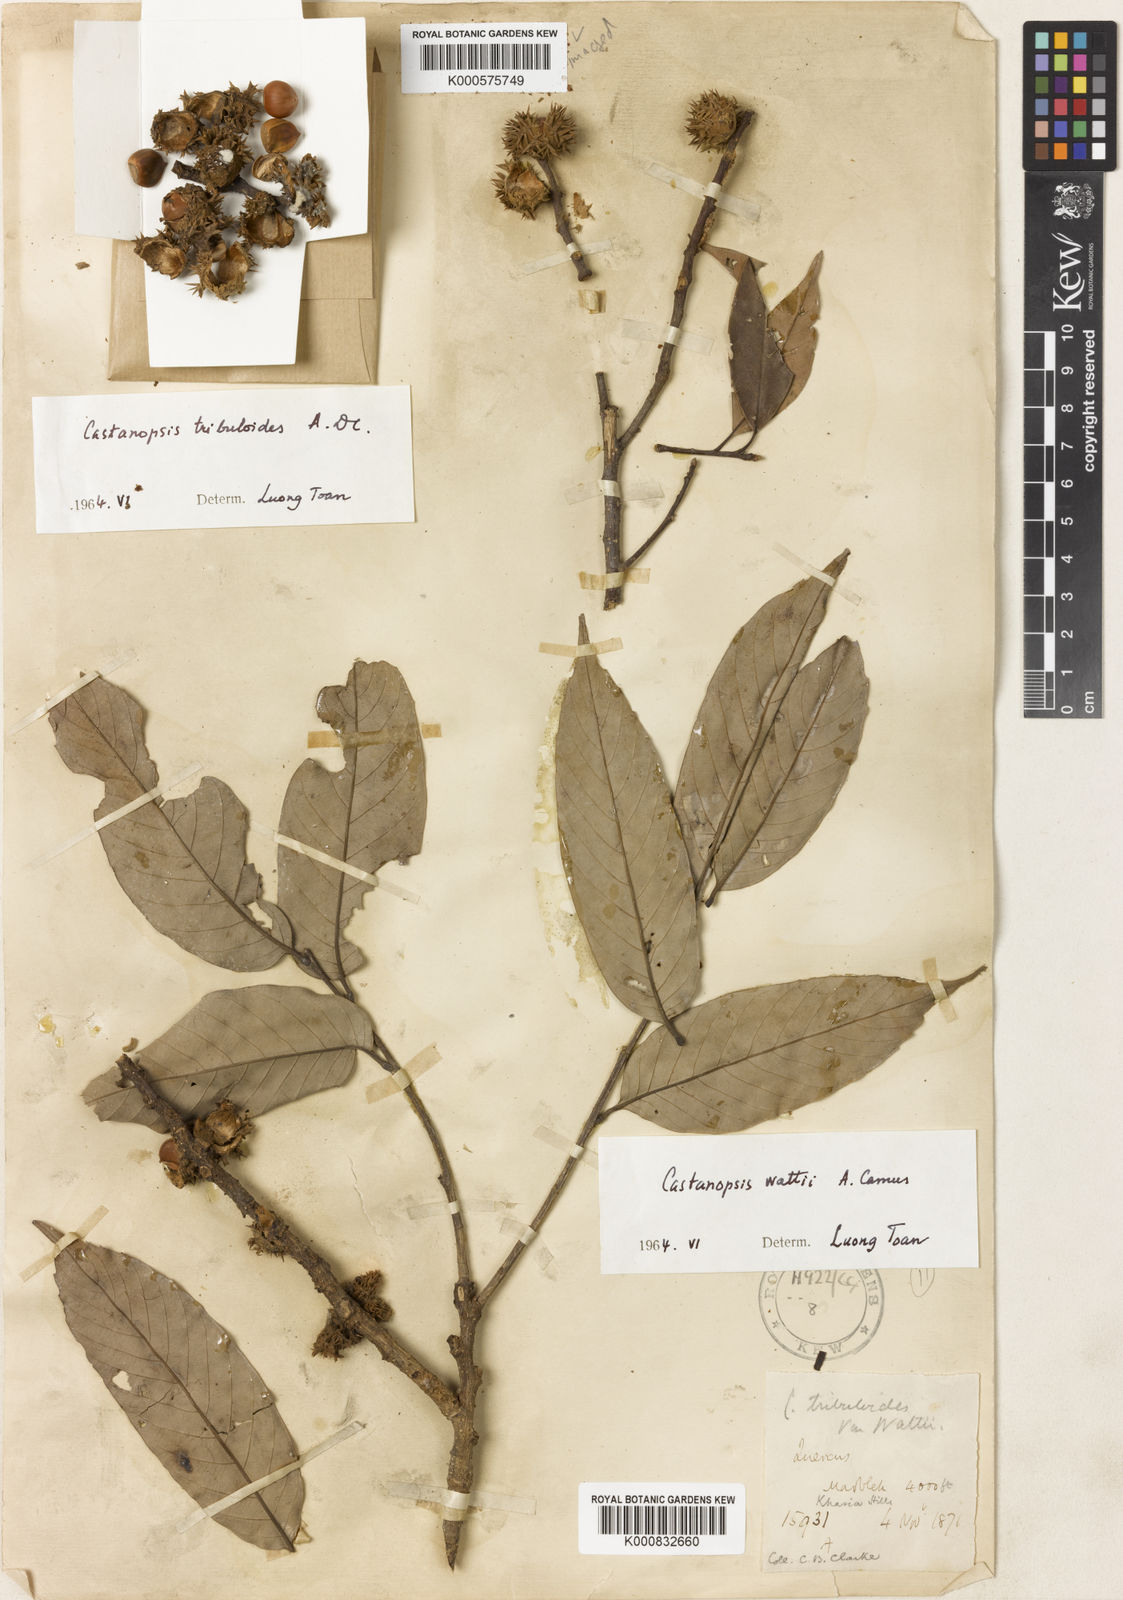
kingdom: Plantae
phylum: Tracheophyta
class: Magnoliopsida
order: Fagales
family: Fagaceae
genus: Castanopsis
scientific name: Castanopsis wattii
